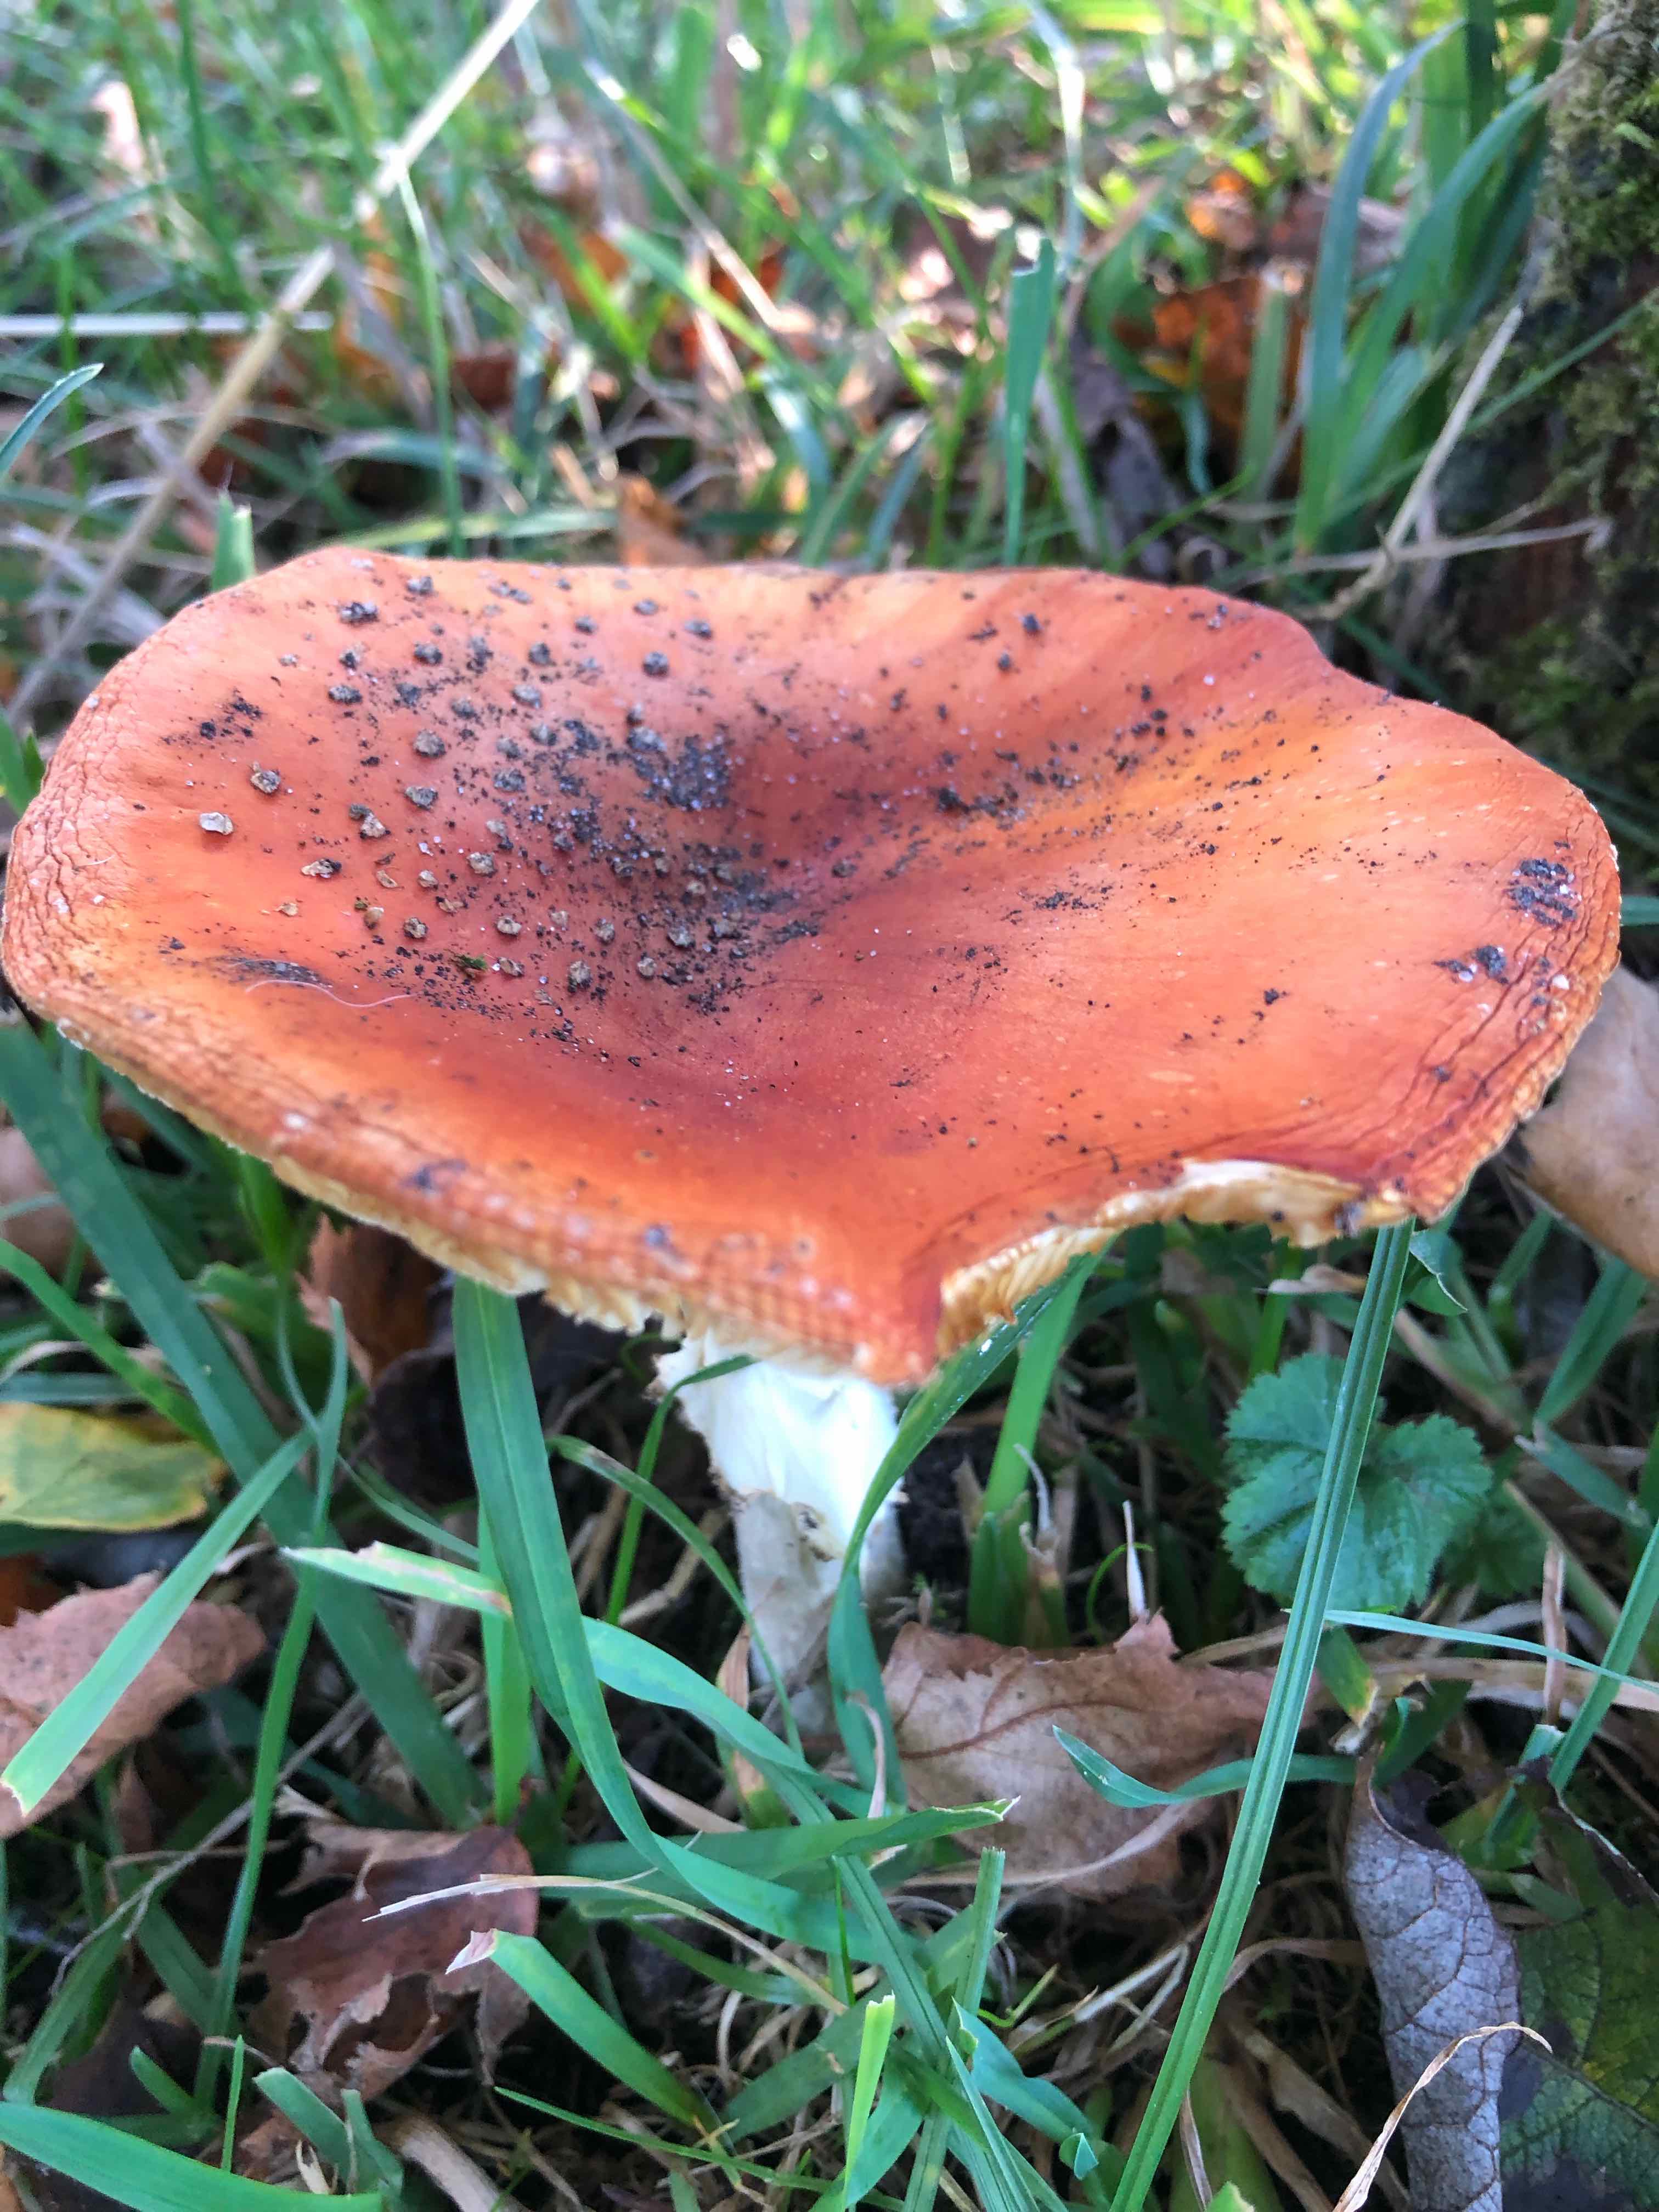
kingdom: Fungi
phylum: Basidiomycota
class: Agaricomycetes
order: Agaricales
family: Amanitaceae
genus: Amanita
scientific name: Amanita muscaria
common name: rød fluesvamp
